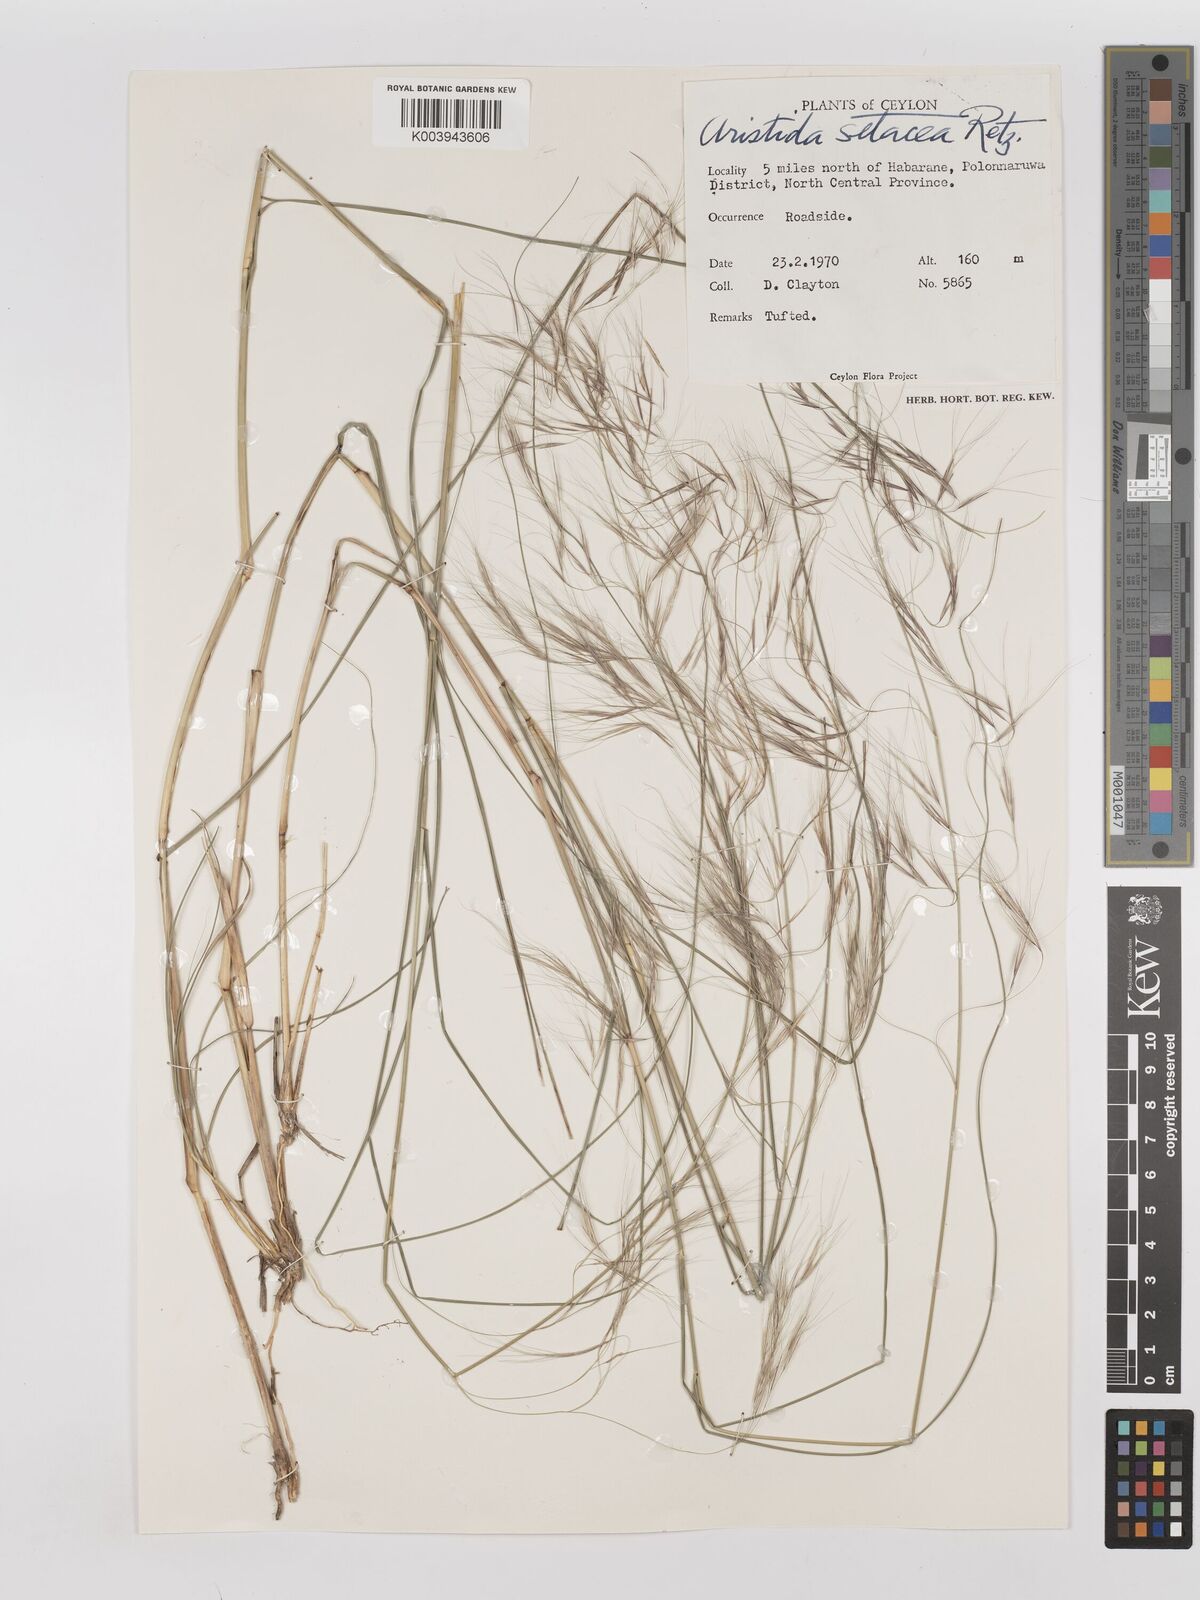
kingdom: Plantae
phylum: Tracheophyta
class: Liliopsida
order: Poales
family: Poaceae
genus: Aristida
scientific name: Aristida setacea
